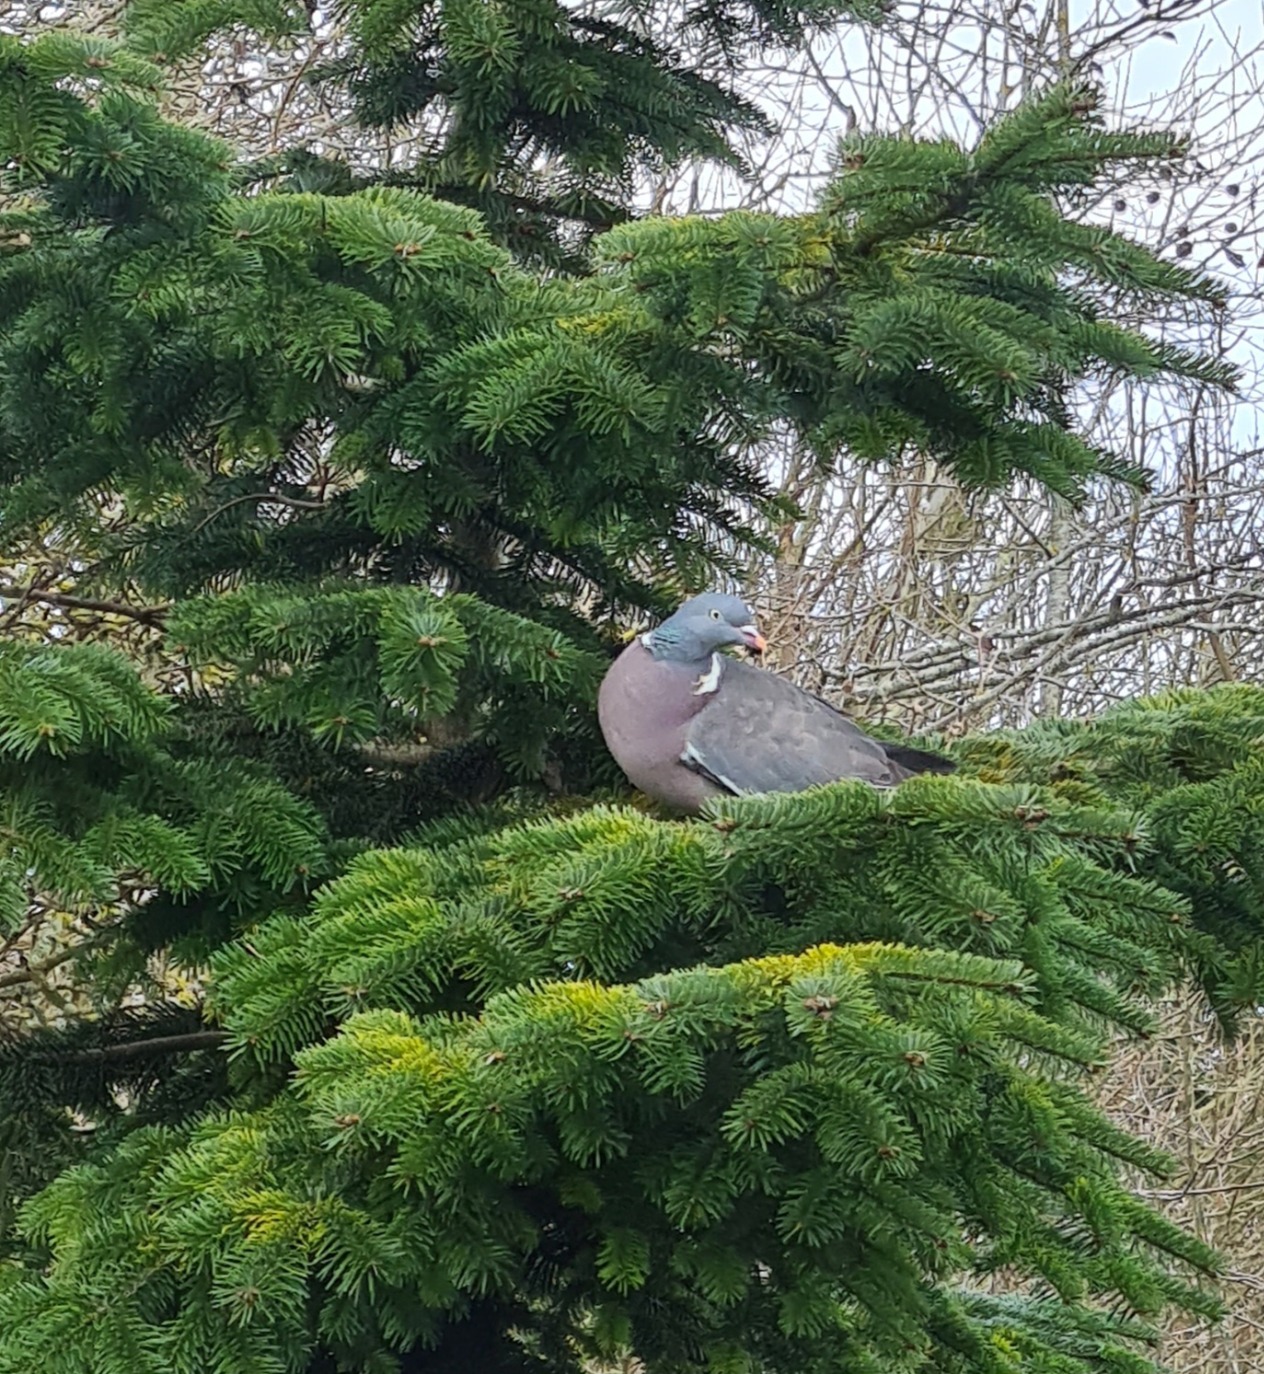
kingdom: Animalia
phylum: Chordata
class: Aves
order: Columbiformes
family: Columbidae
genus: Columba
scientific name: Columba palumbus
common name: Ringdue
